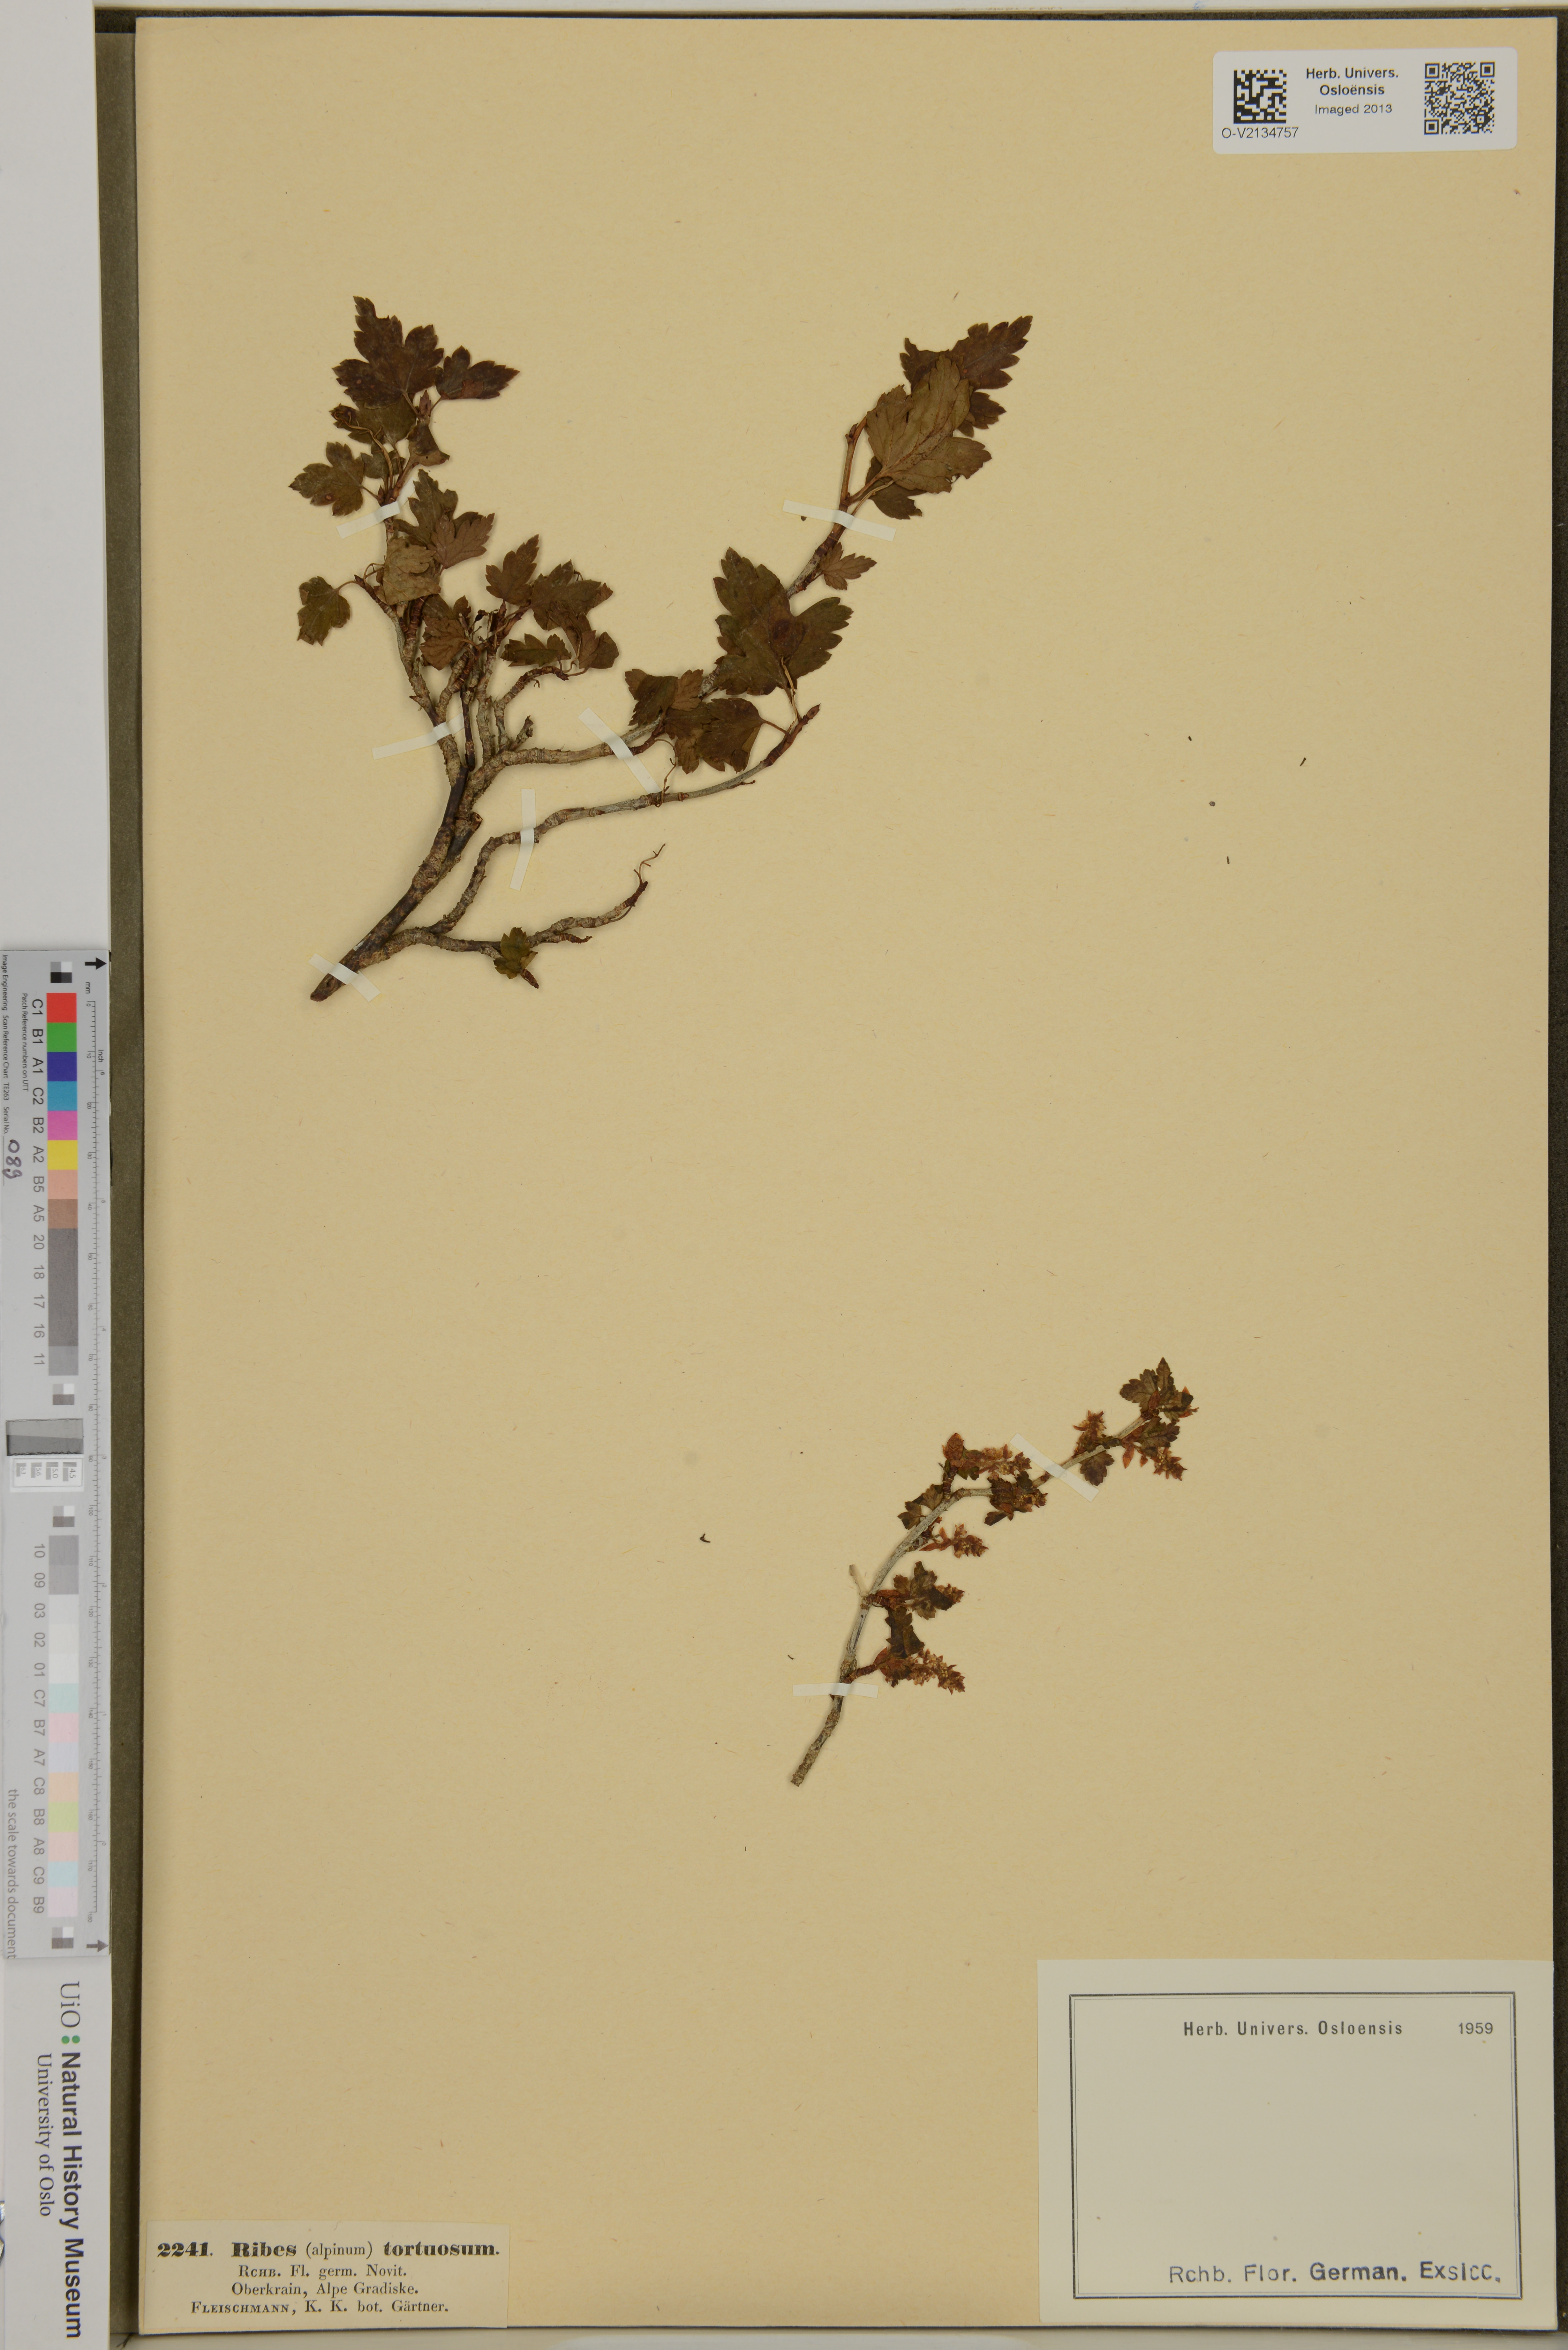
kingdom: Plantae
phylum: Tracheophyta
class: Magnoliopsida
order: Saxifragales
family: Grossulariaceae
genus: Ribes
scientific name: Ribes tortuosum
